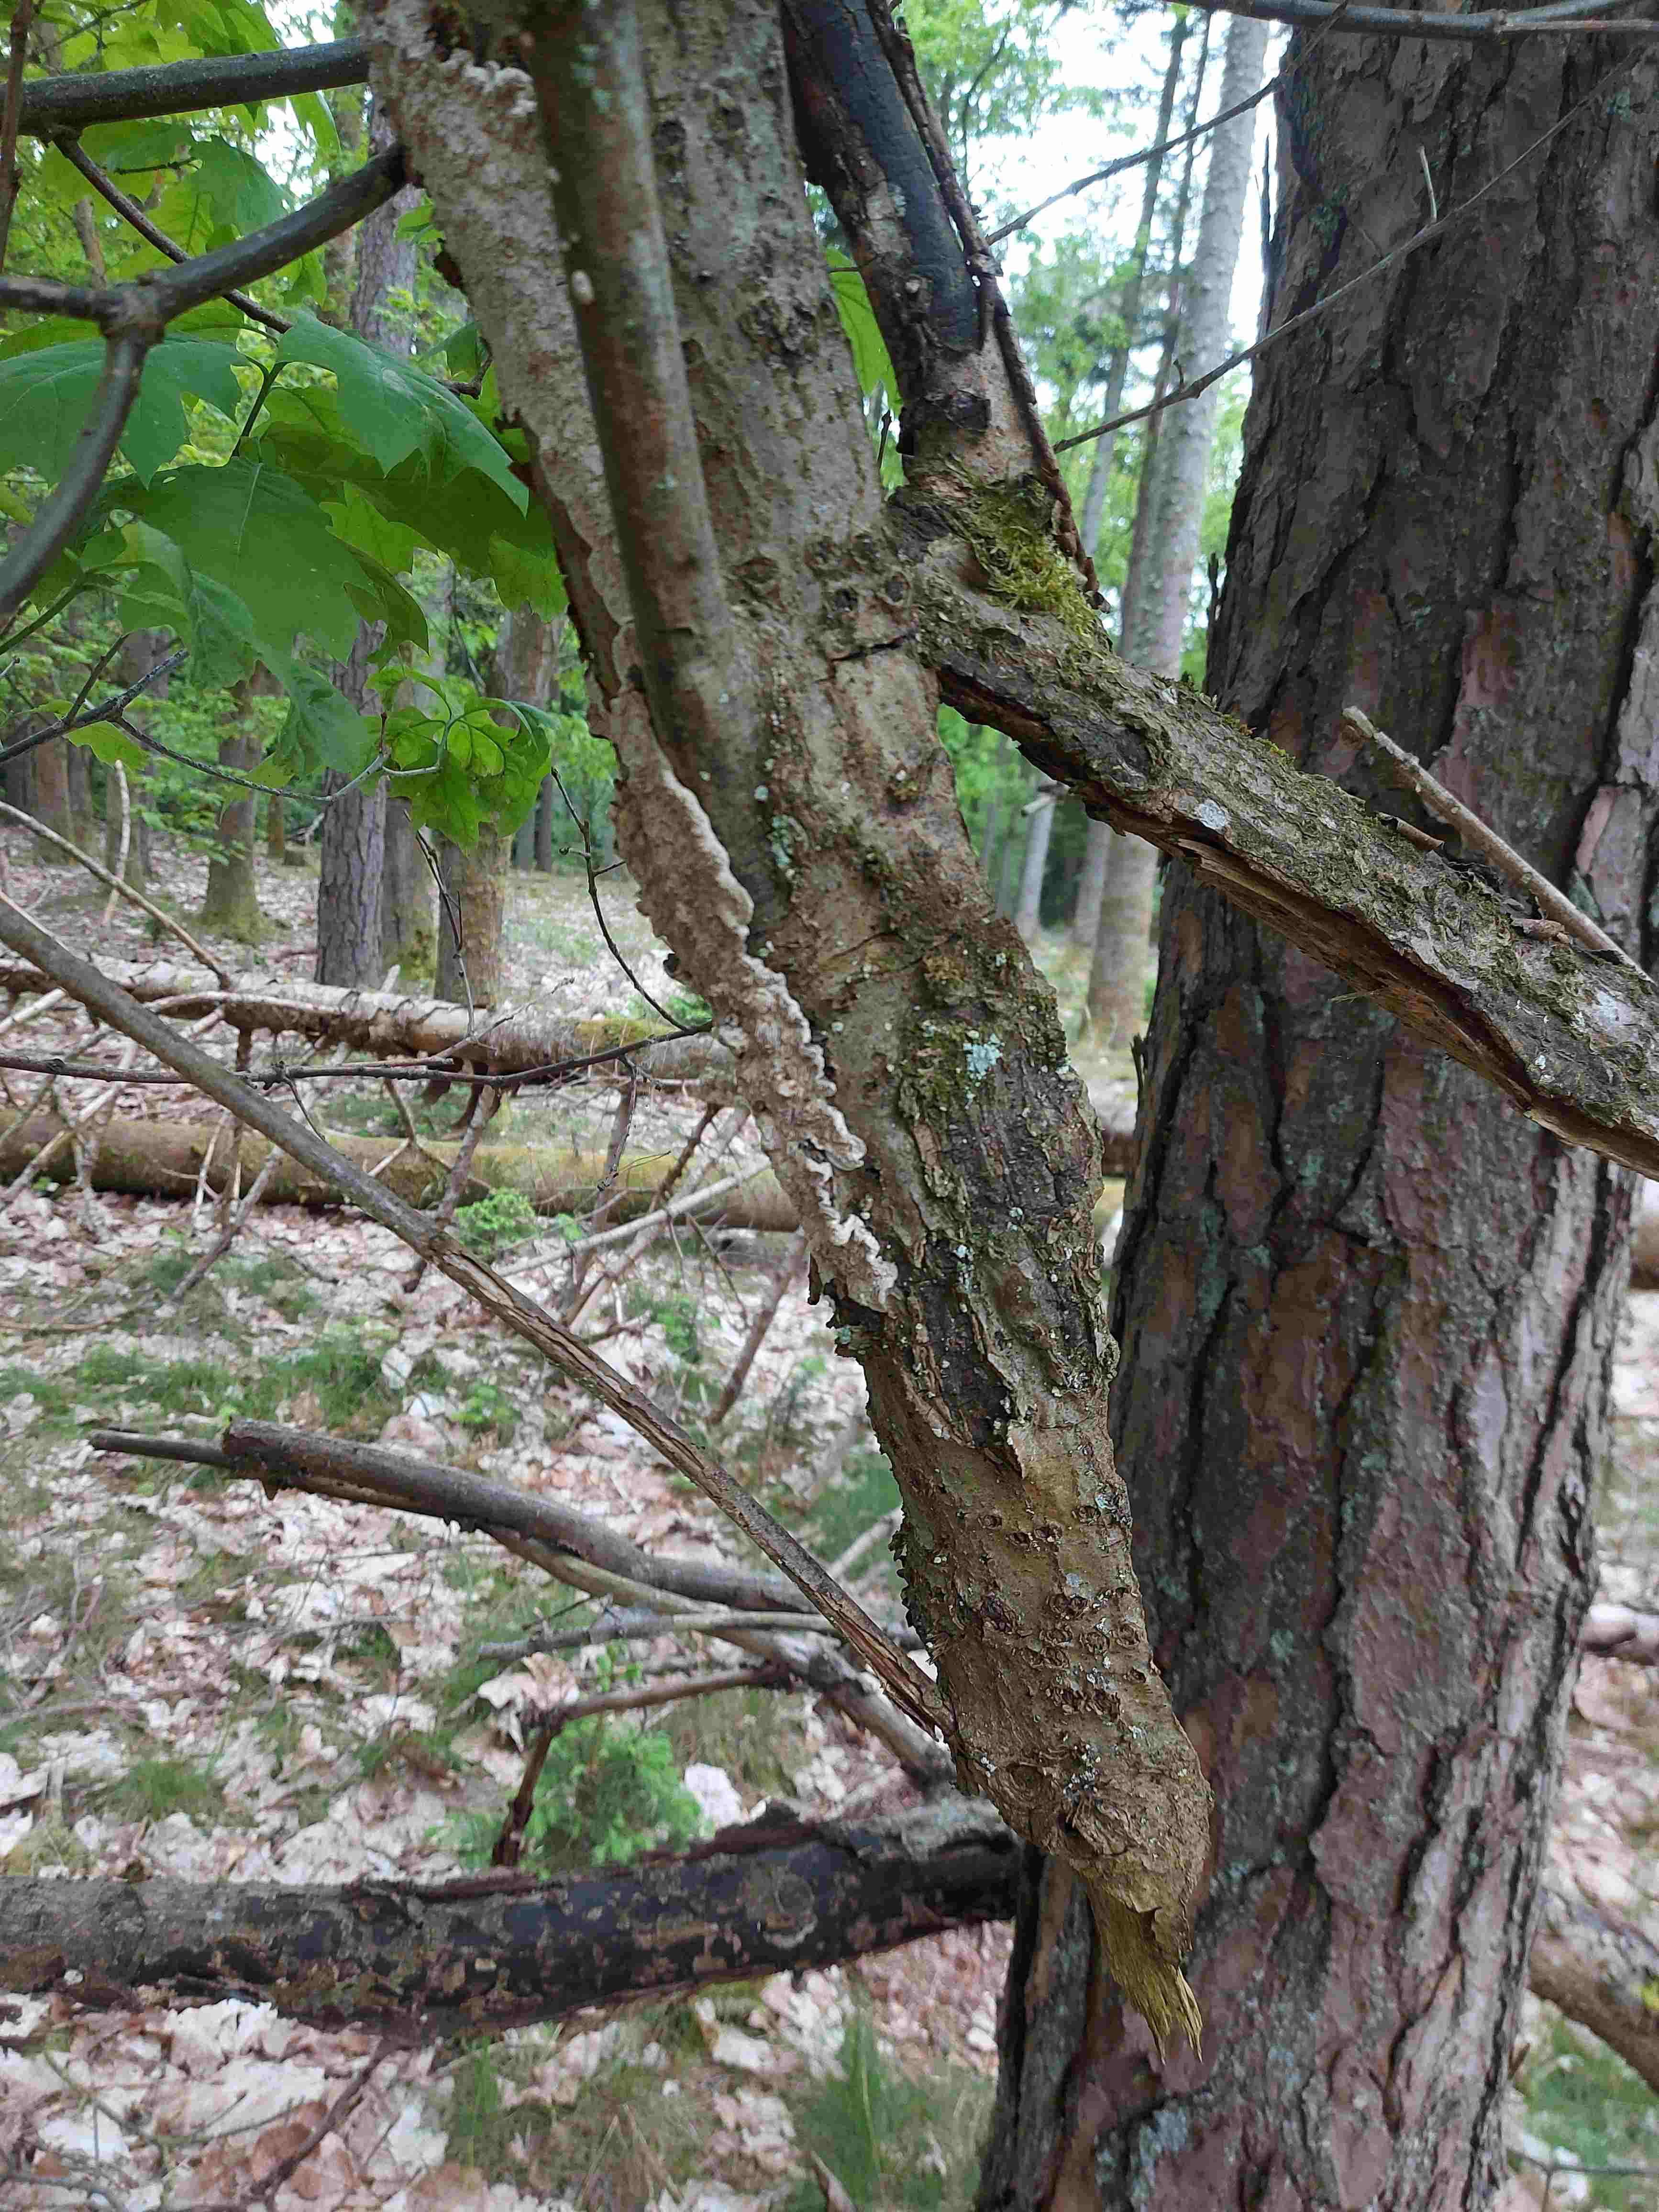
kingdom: Fungi
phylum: Basidiomycota
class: Agaricomycetes
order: Polyporales
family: Polyporaceae
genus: Podofomes
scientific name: Podofomes mollis
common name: blød begporesvamp
